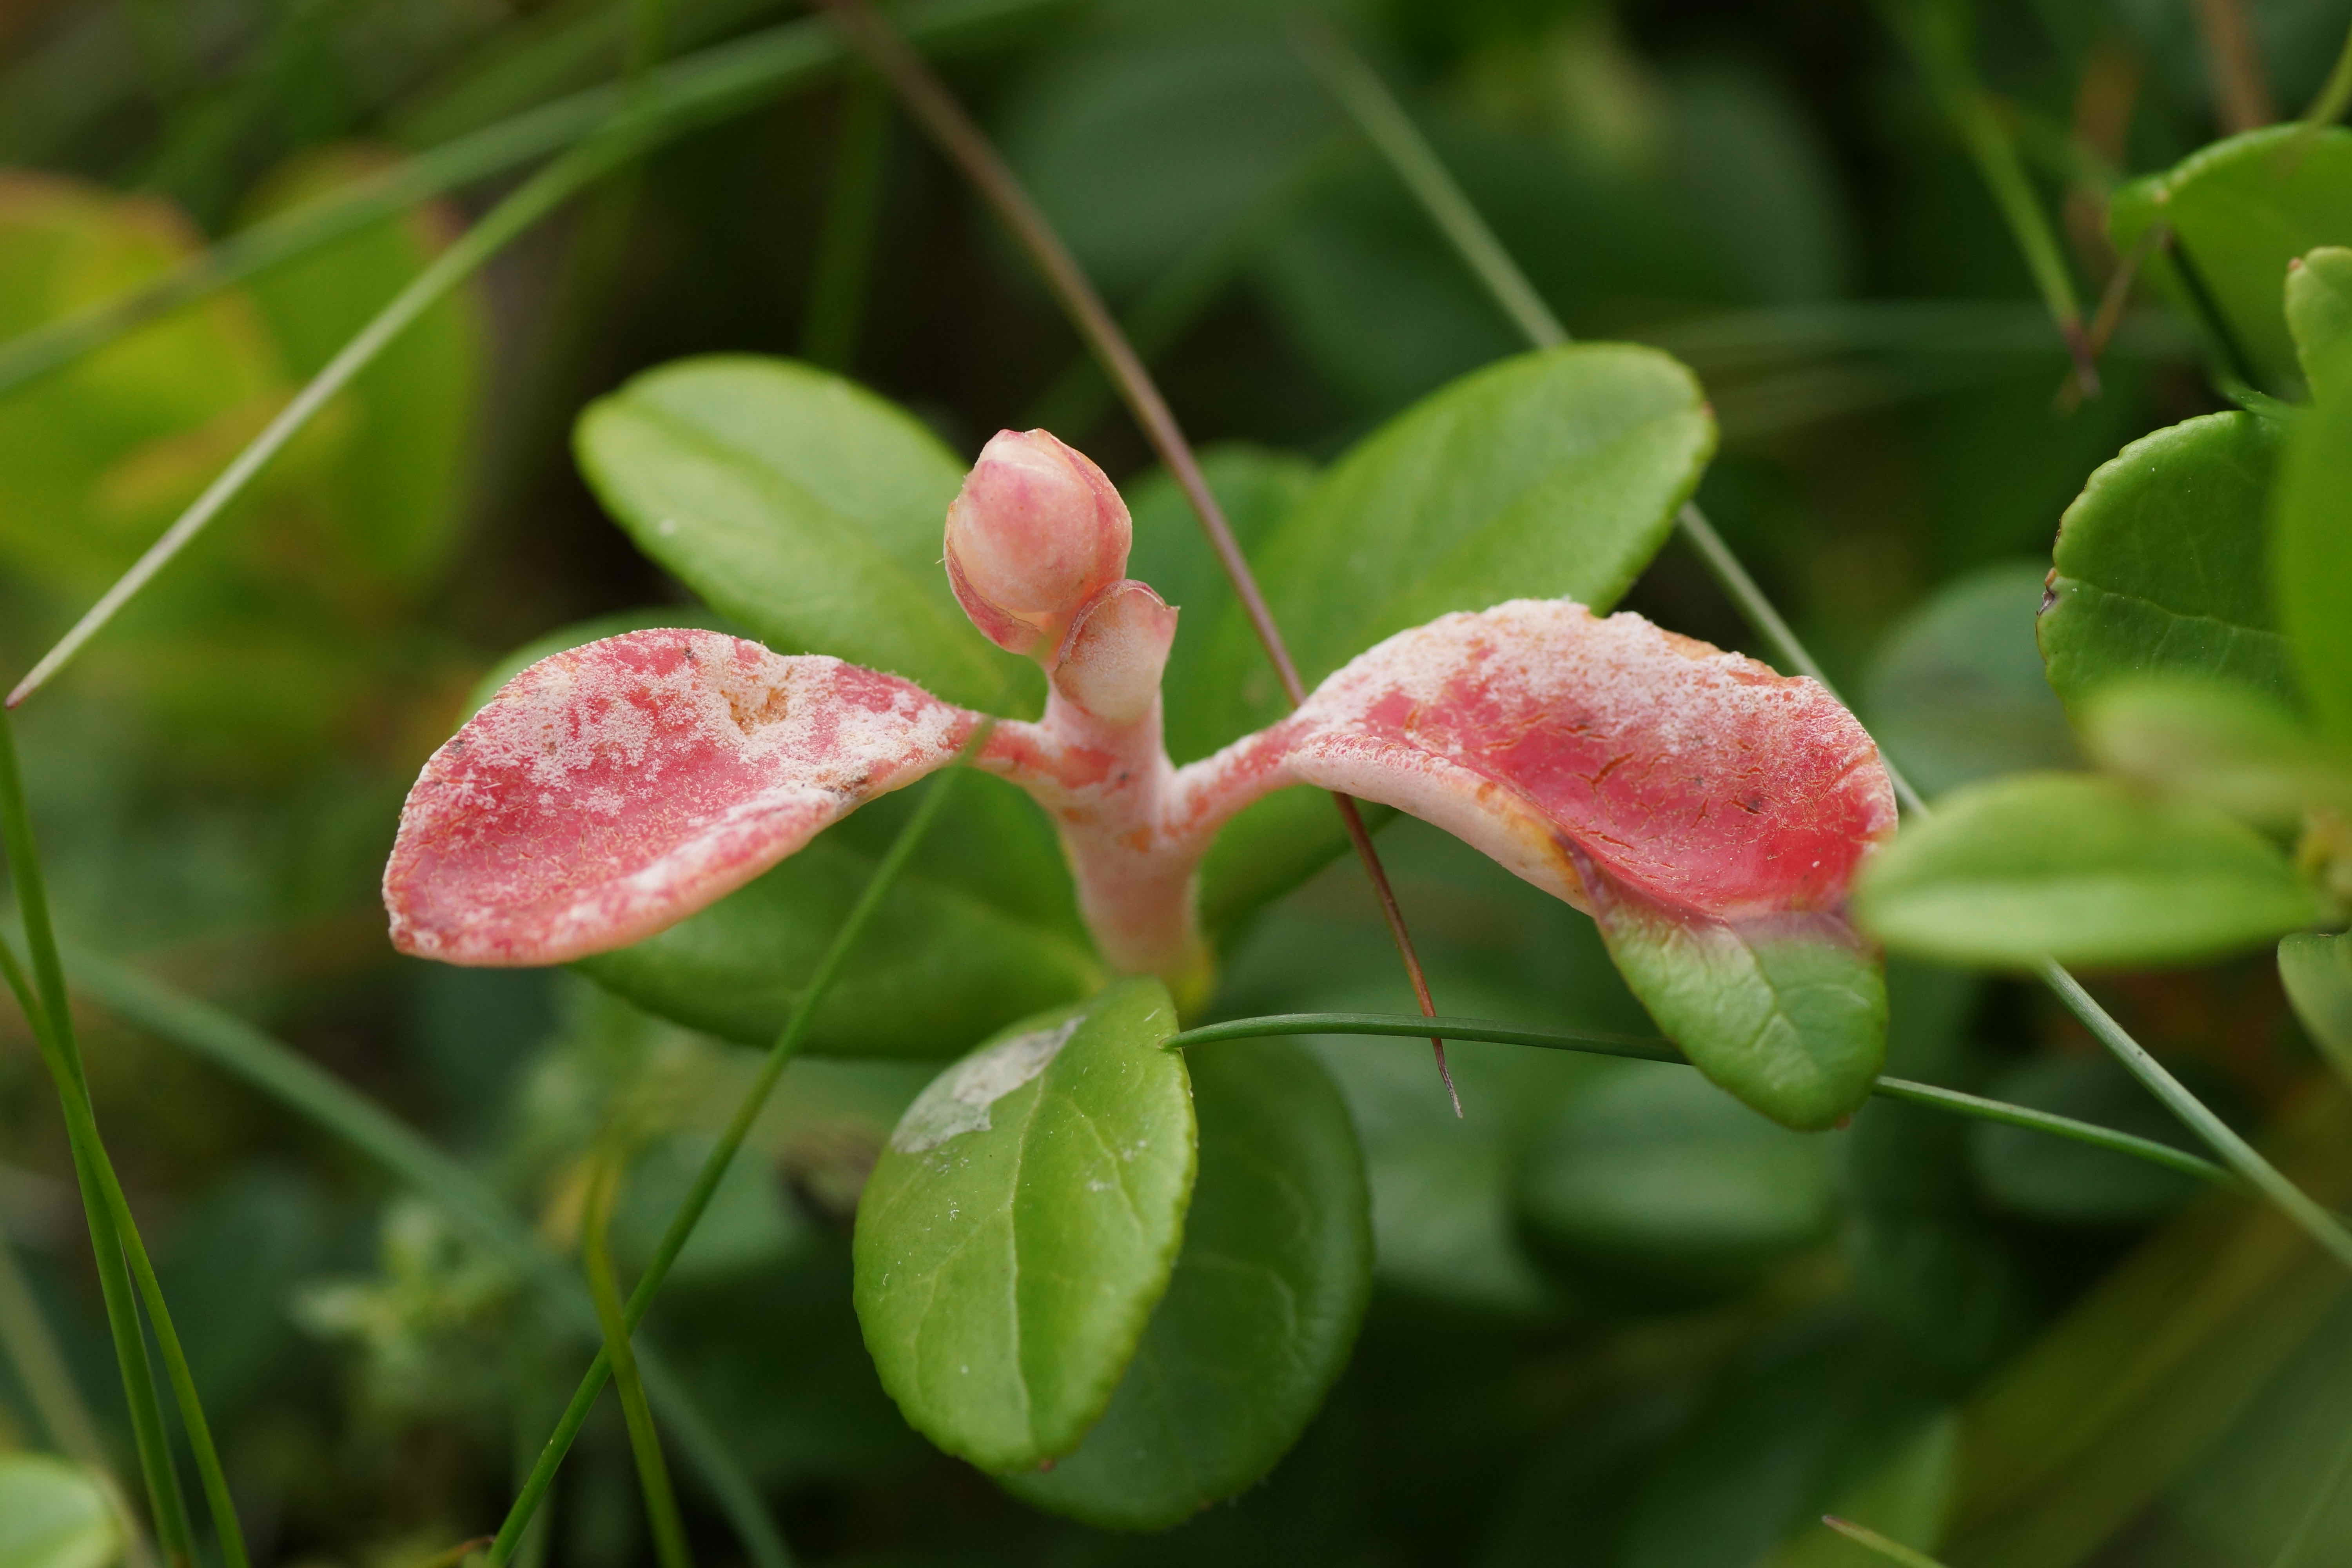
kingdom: Fungi
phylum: Basidiomycota
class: Exobasidiomycetes
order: Exobasidiales
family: Exobasidiaceae
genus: Exobasidium
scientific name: Exobasidium vaccinii
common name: tyttebærblad-bøllesvamp
